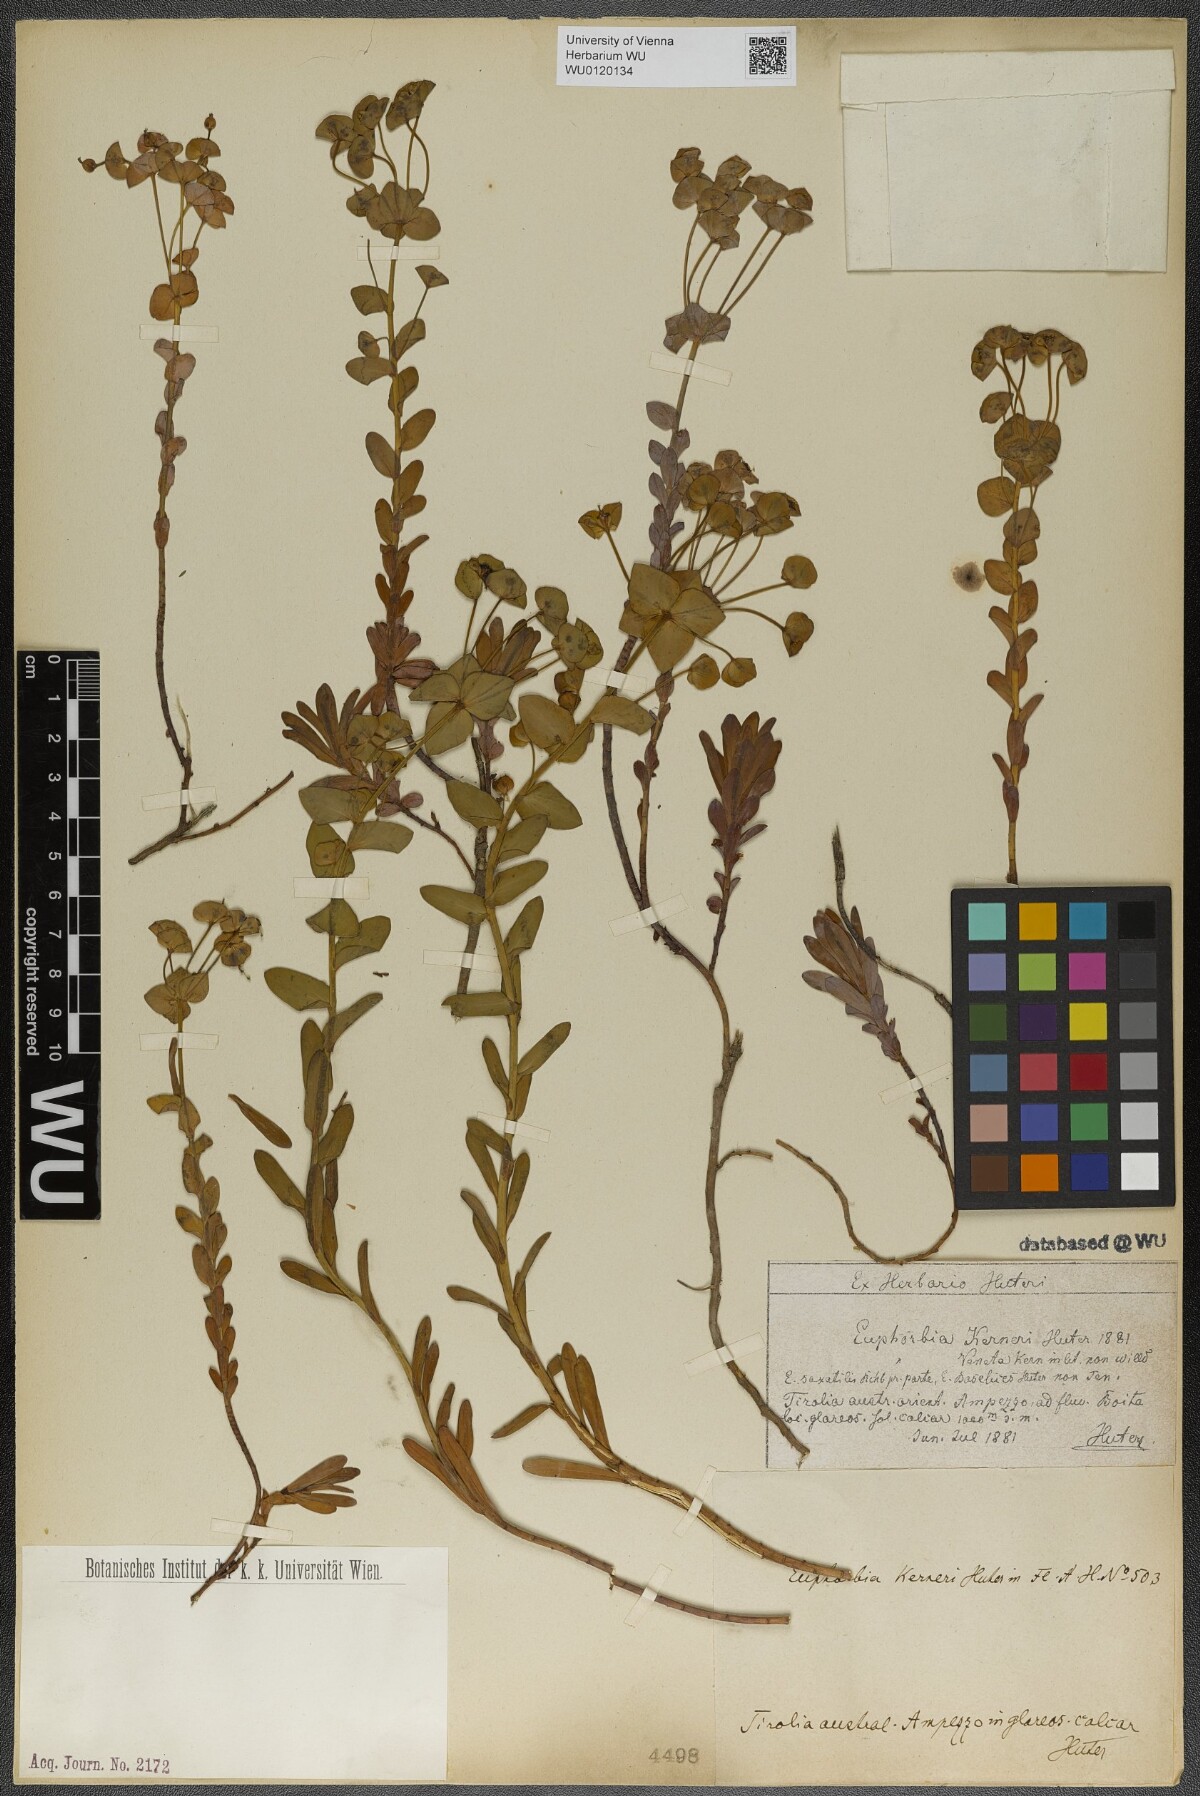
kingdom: Plantae
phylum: Tracheophyta
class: Magnoliopsida
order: Malpighiales
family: Euphorbiaceae
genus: Euphorbia
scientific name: Euphorbia kerneri
